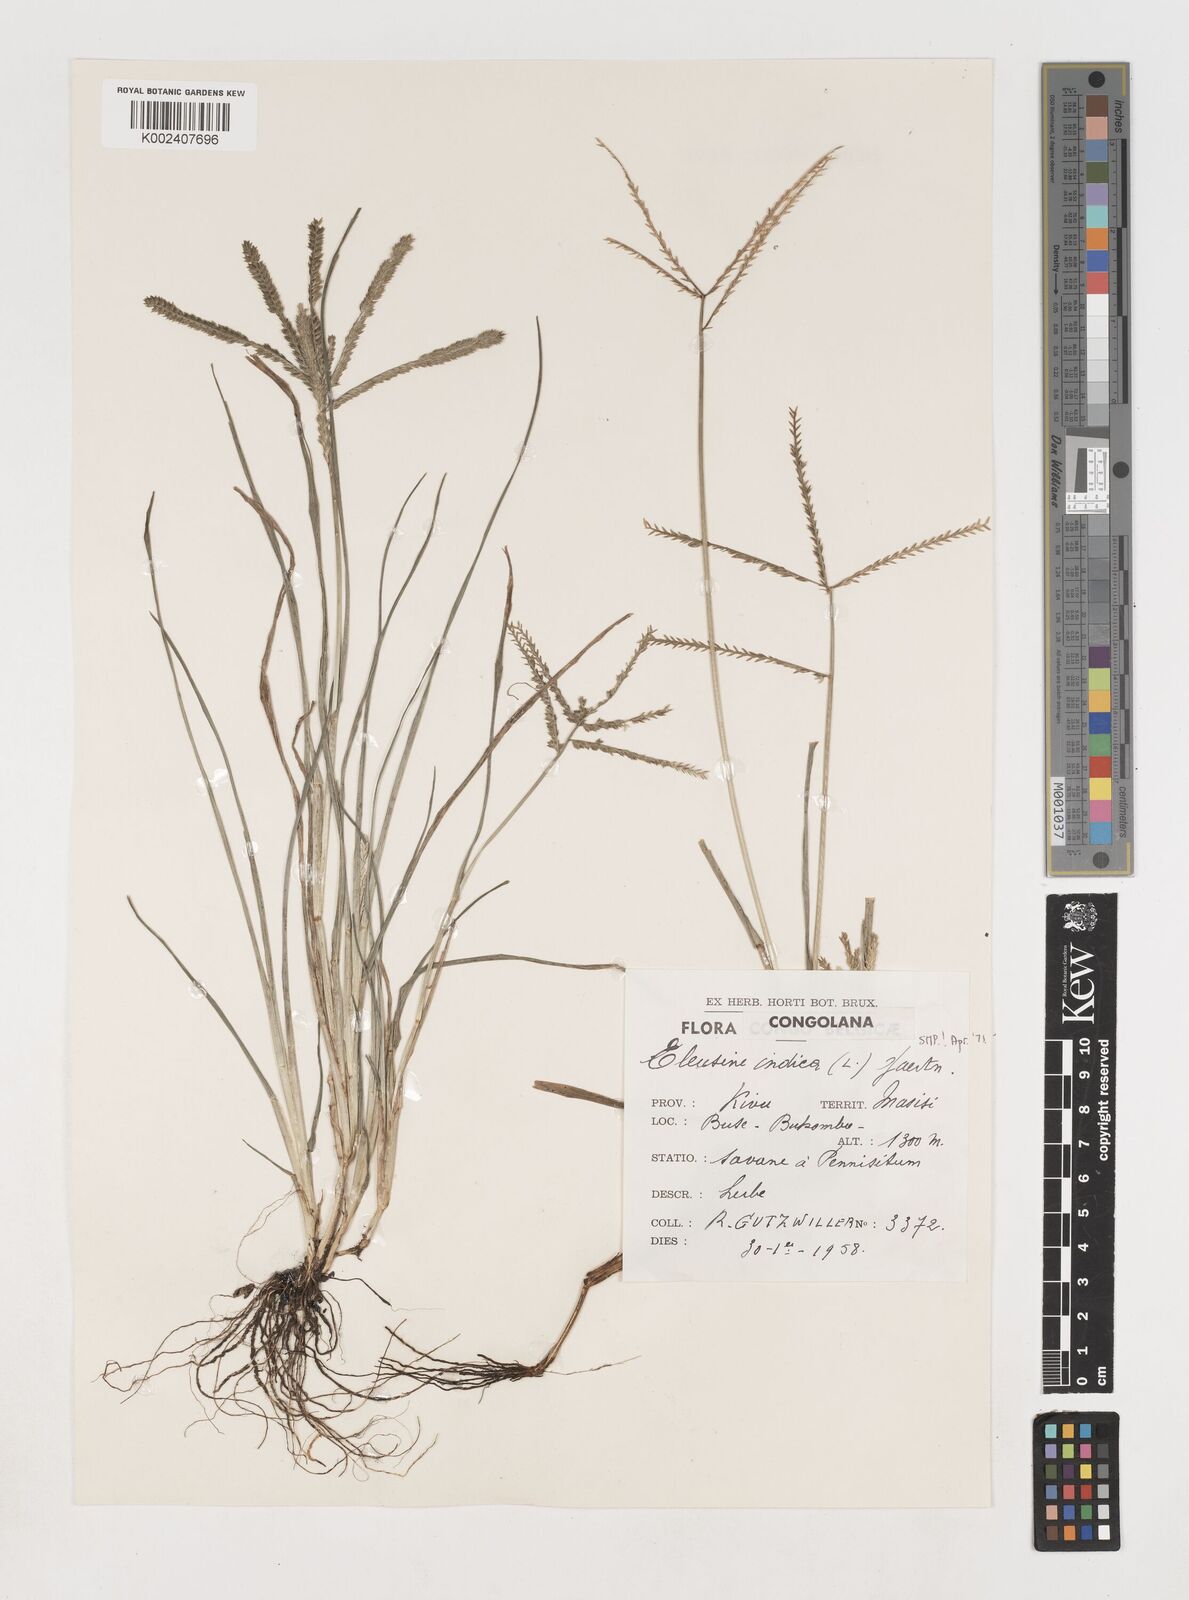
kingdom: Plantae
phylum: Tracheophyta
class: Liliopsida
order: Poales
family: Poaceae
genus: Eleusine
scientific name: Eleusine indica
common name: Yard-grass
